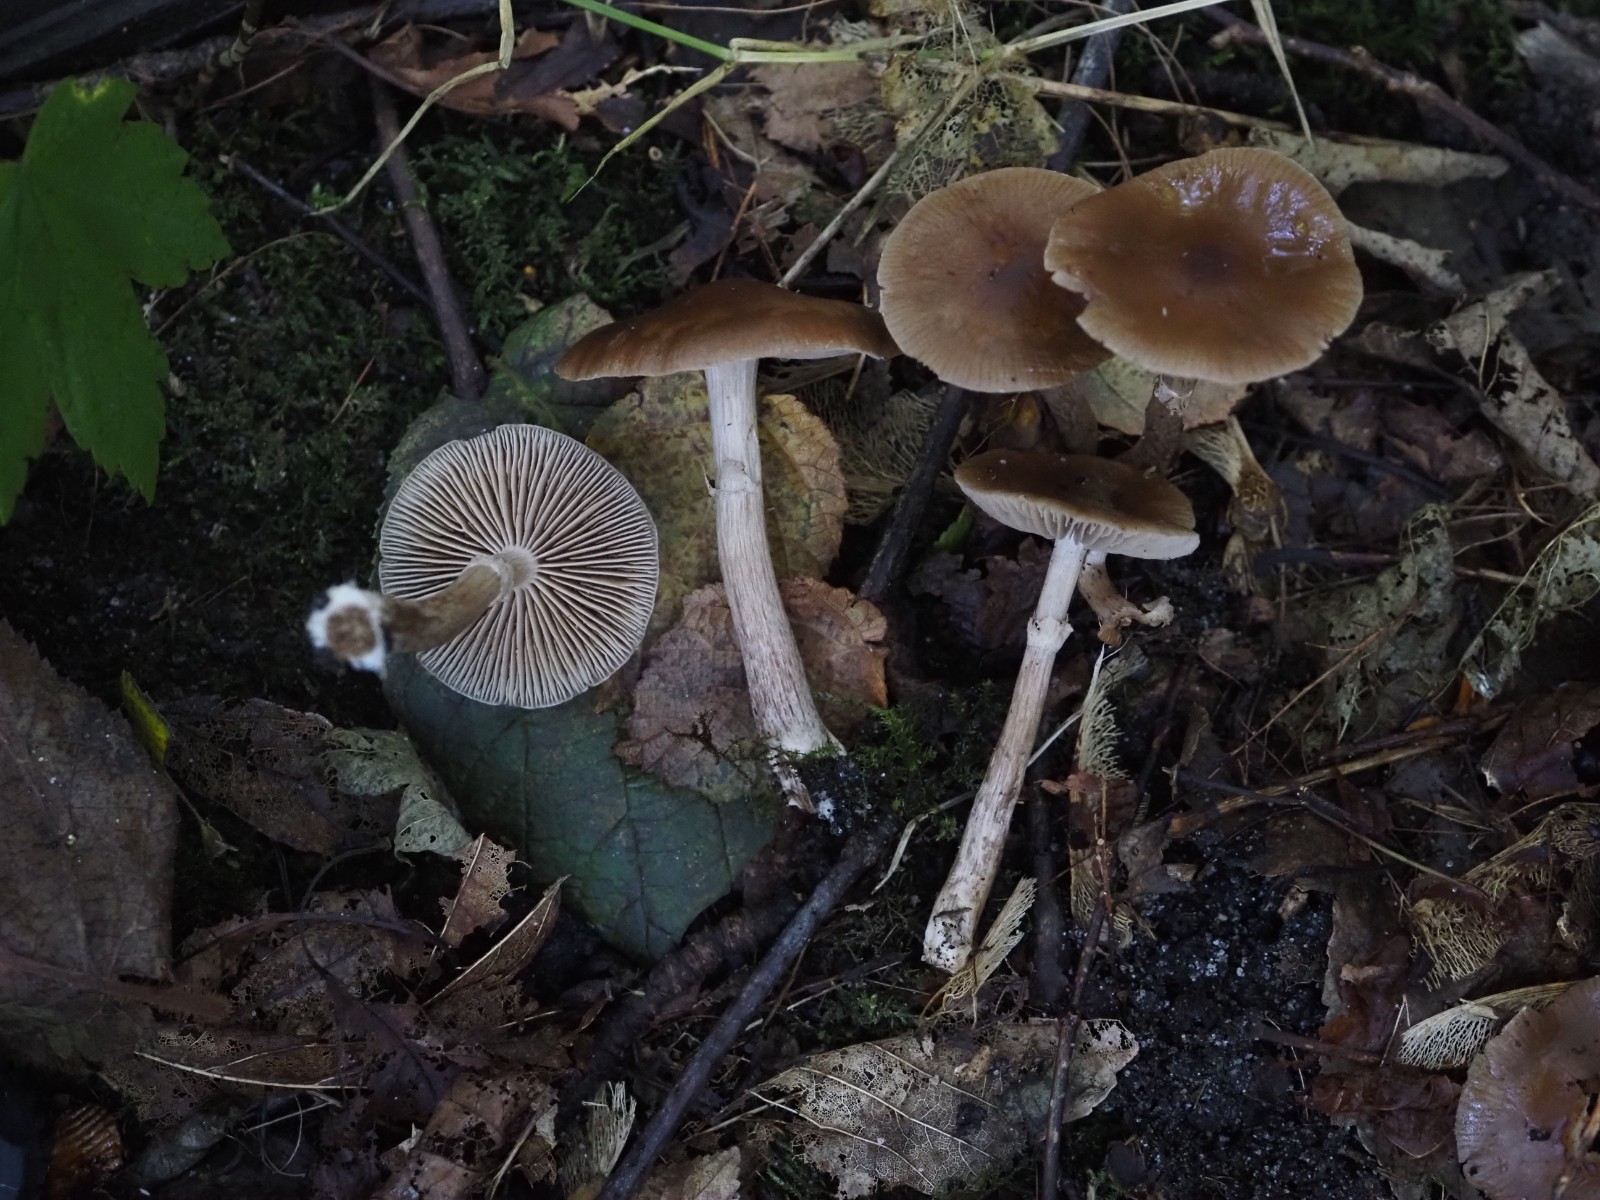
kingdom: Fungi
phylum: Basidiomycota
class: Agaricomycetes
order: Agaricales
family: Tubariaceae
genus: Cyclocybe
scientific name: Cyclocybe erebia
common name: mørk agerhat
